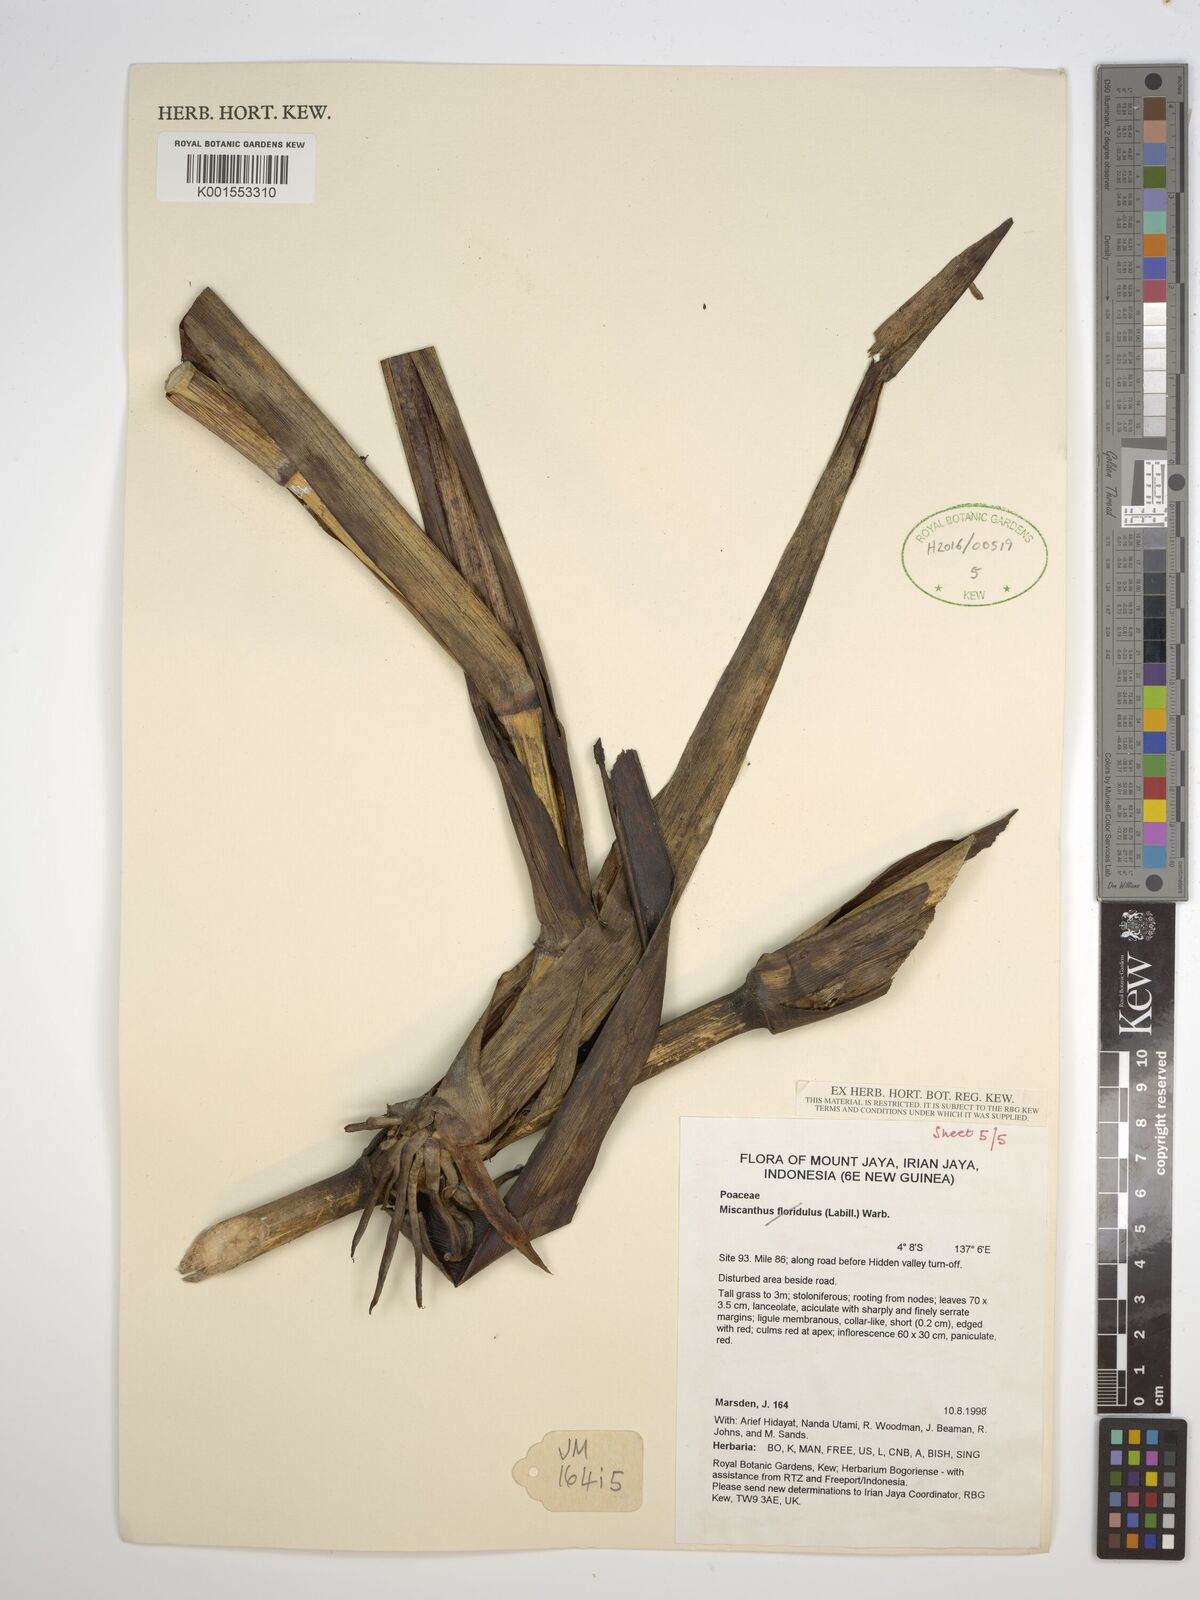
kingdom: Plantae
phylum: Tracheophyta
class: Liliopsida
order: Poales
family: Poaceae
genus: Saccharum
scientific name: Saccharum
